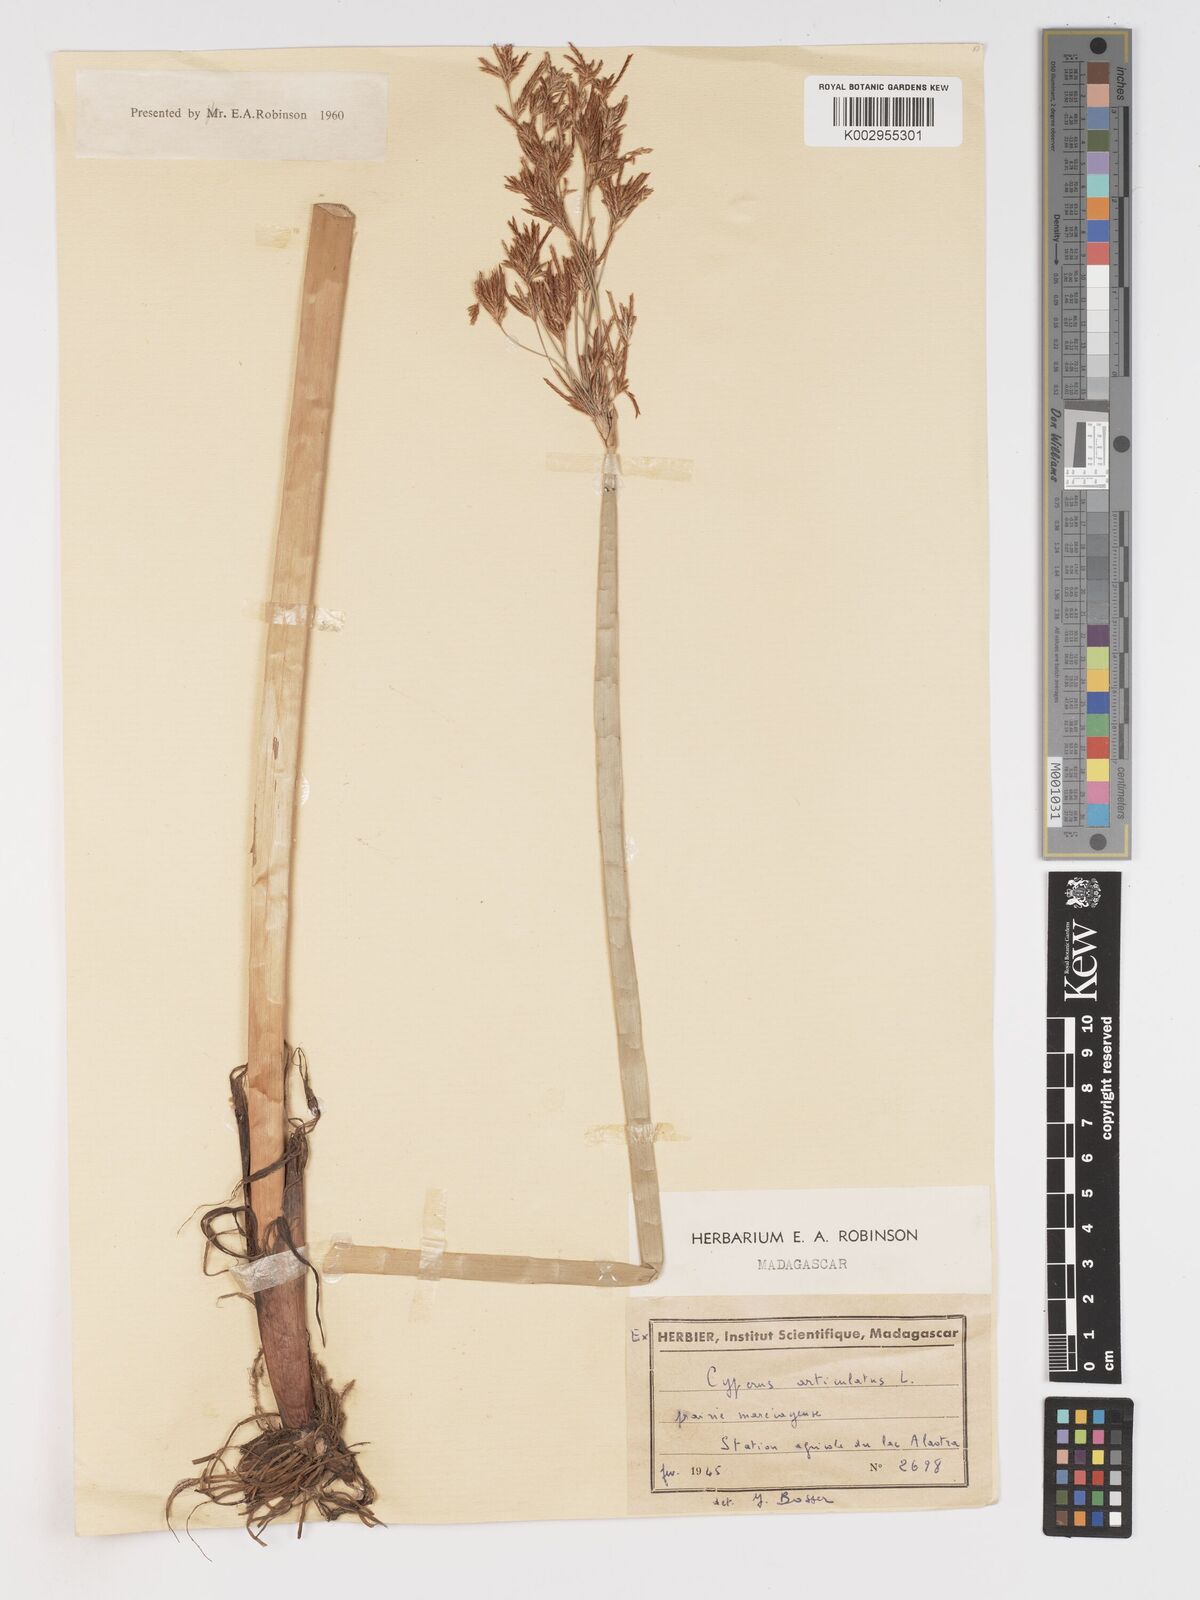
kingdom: Plantae
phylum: Tracheophyta
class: Liliopsida
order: Poales
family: Cyperaceae
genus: Cyperus
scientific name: Cyperus articulatus
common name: Jointed flatsedge
